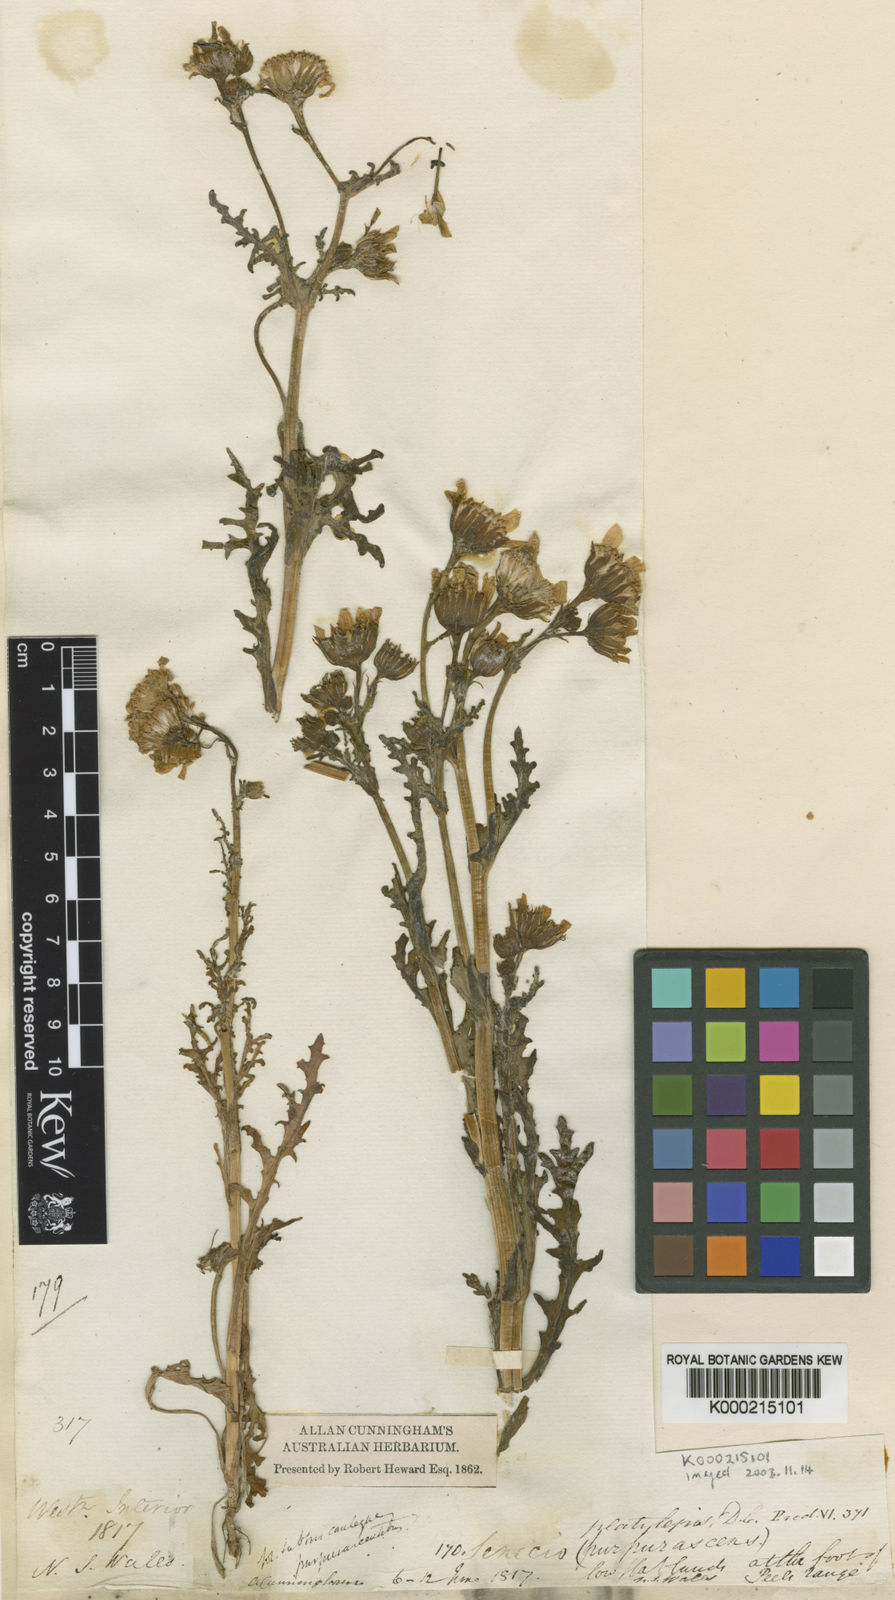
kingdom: Plantae
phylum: Tracheophyta
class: Magnoliopsida
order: Asterales
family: Asteraceae
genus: Senecio
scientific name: Senecio platylepis
